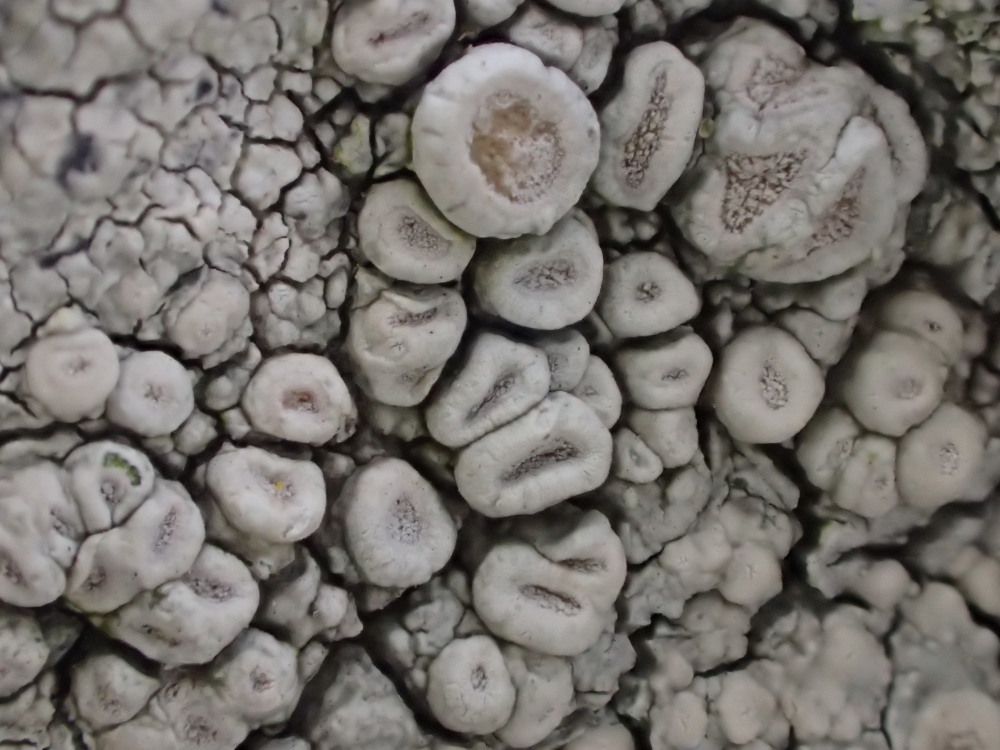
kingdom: Fungi
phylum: Ascomycota
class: Lecanoromycetes
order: Pertusariales
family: Ochrolechiaceae
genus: Ochrolechia
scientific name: Ochrolechia parella
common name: almindelig blegskivelav
